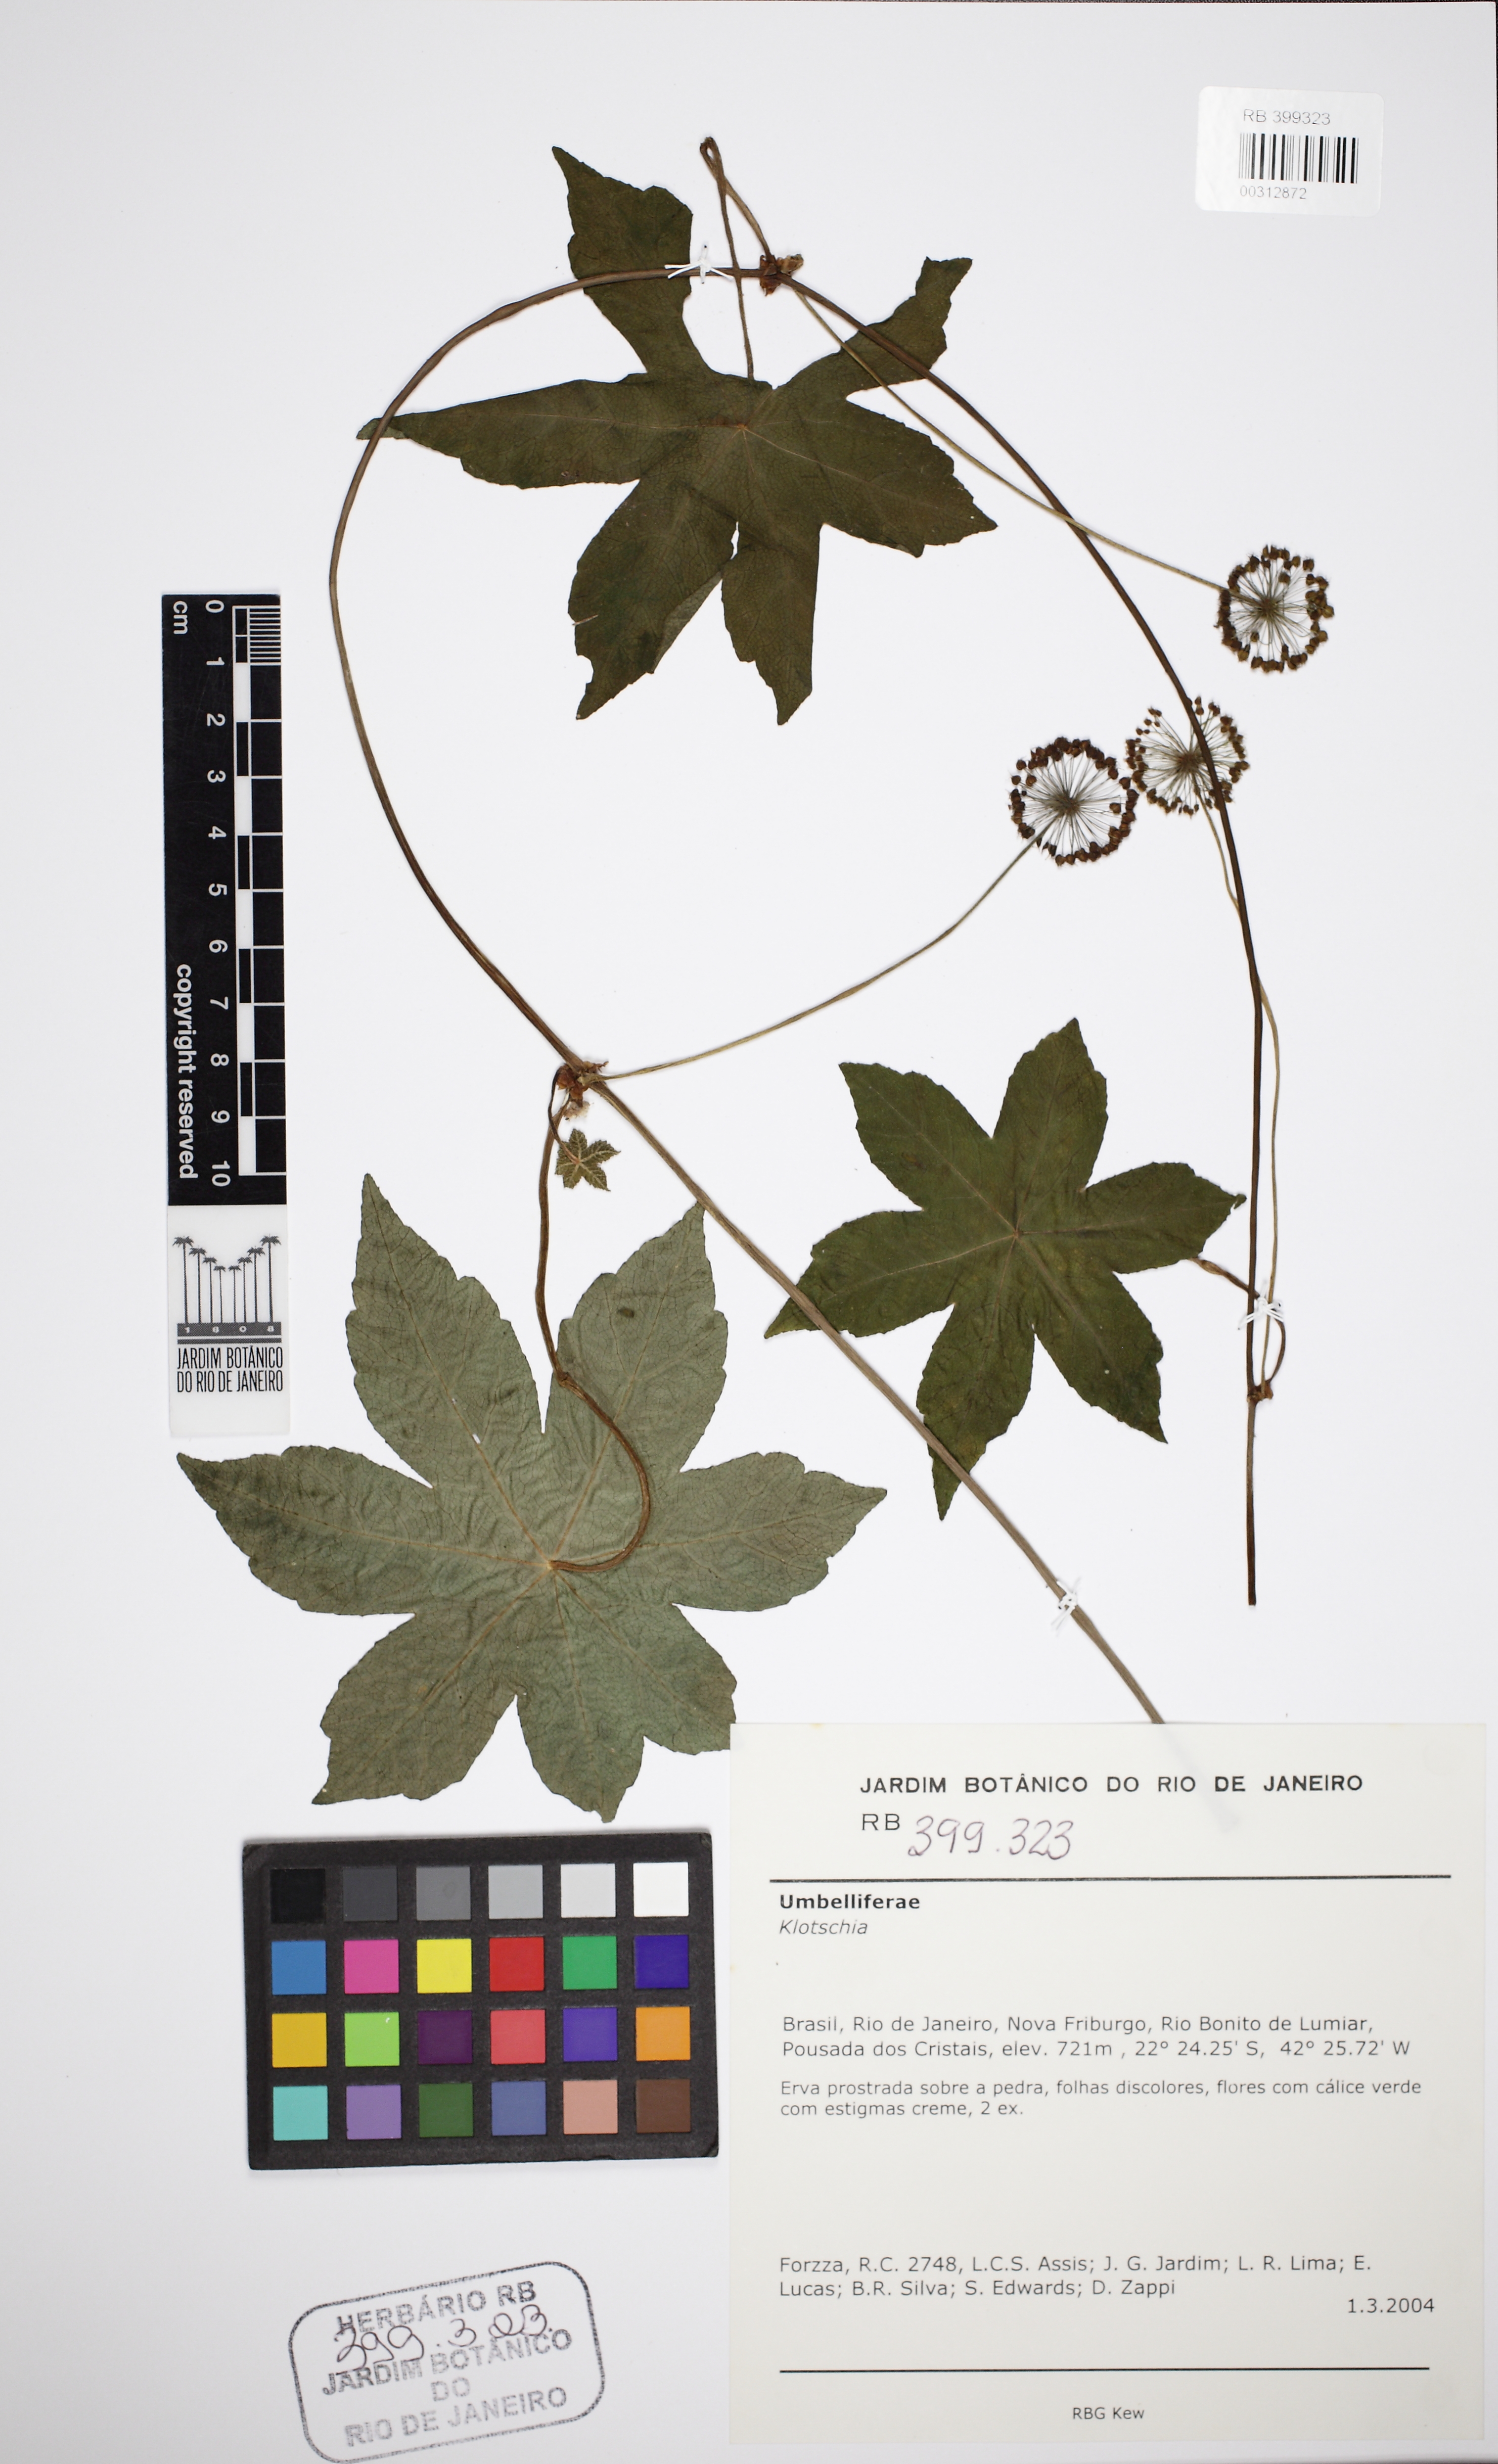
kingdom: Plantae
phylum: Tracheophyta
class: Magnoliopsida
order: Apiales
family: Araliaceae
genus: Hydrocotyle
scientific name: Hydrocotyle quinqueloba
